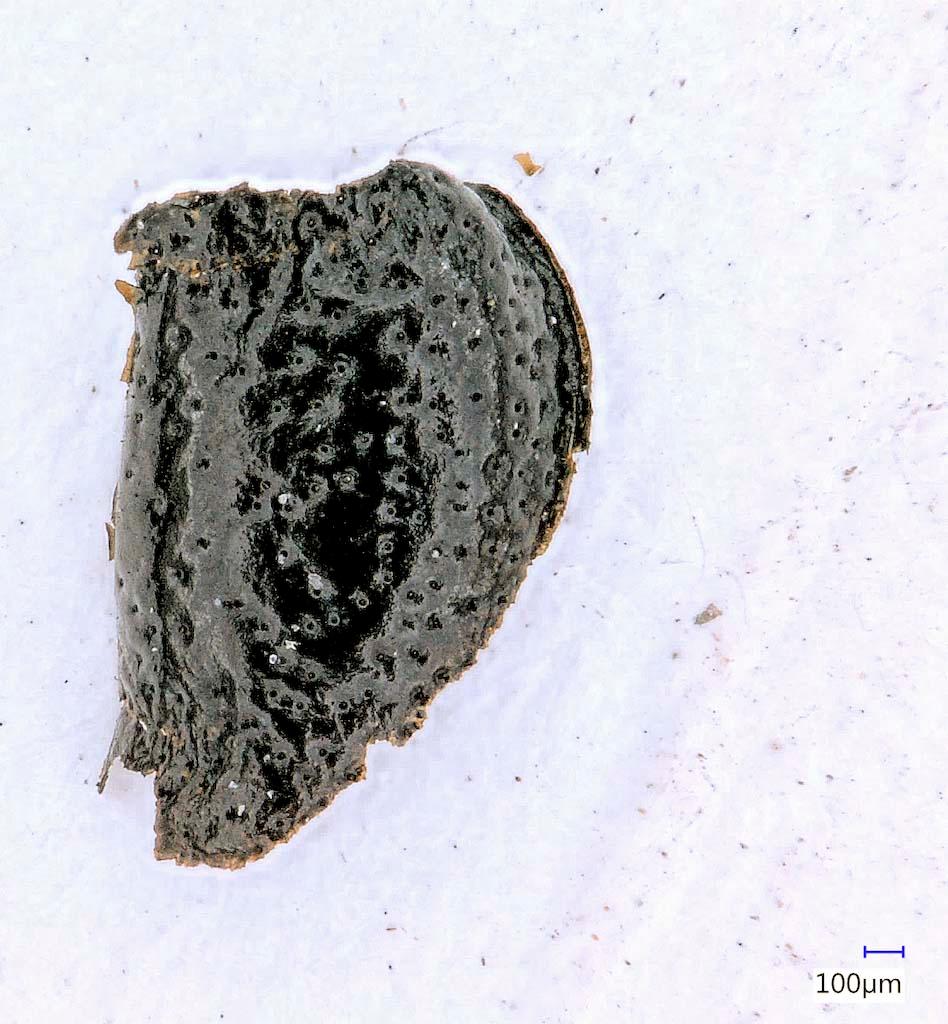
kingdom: Animalia
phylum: Arthropoda
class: Insecta
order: Coleoptera
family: Carabidae
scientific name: Carabidae
